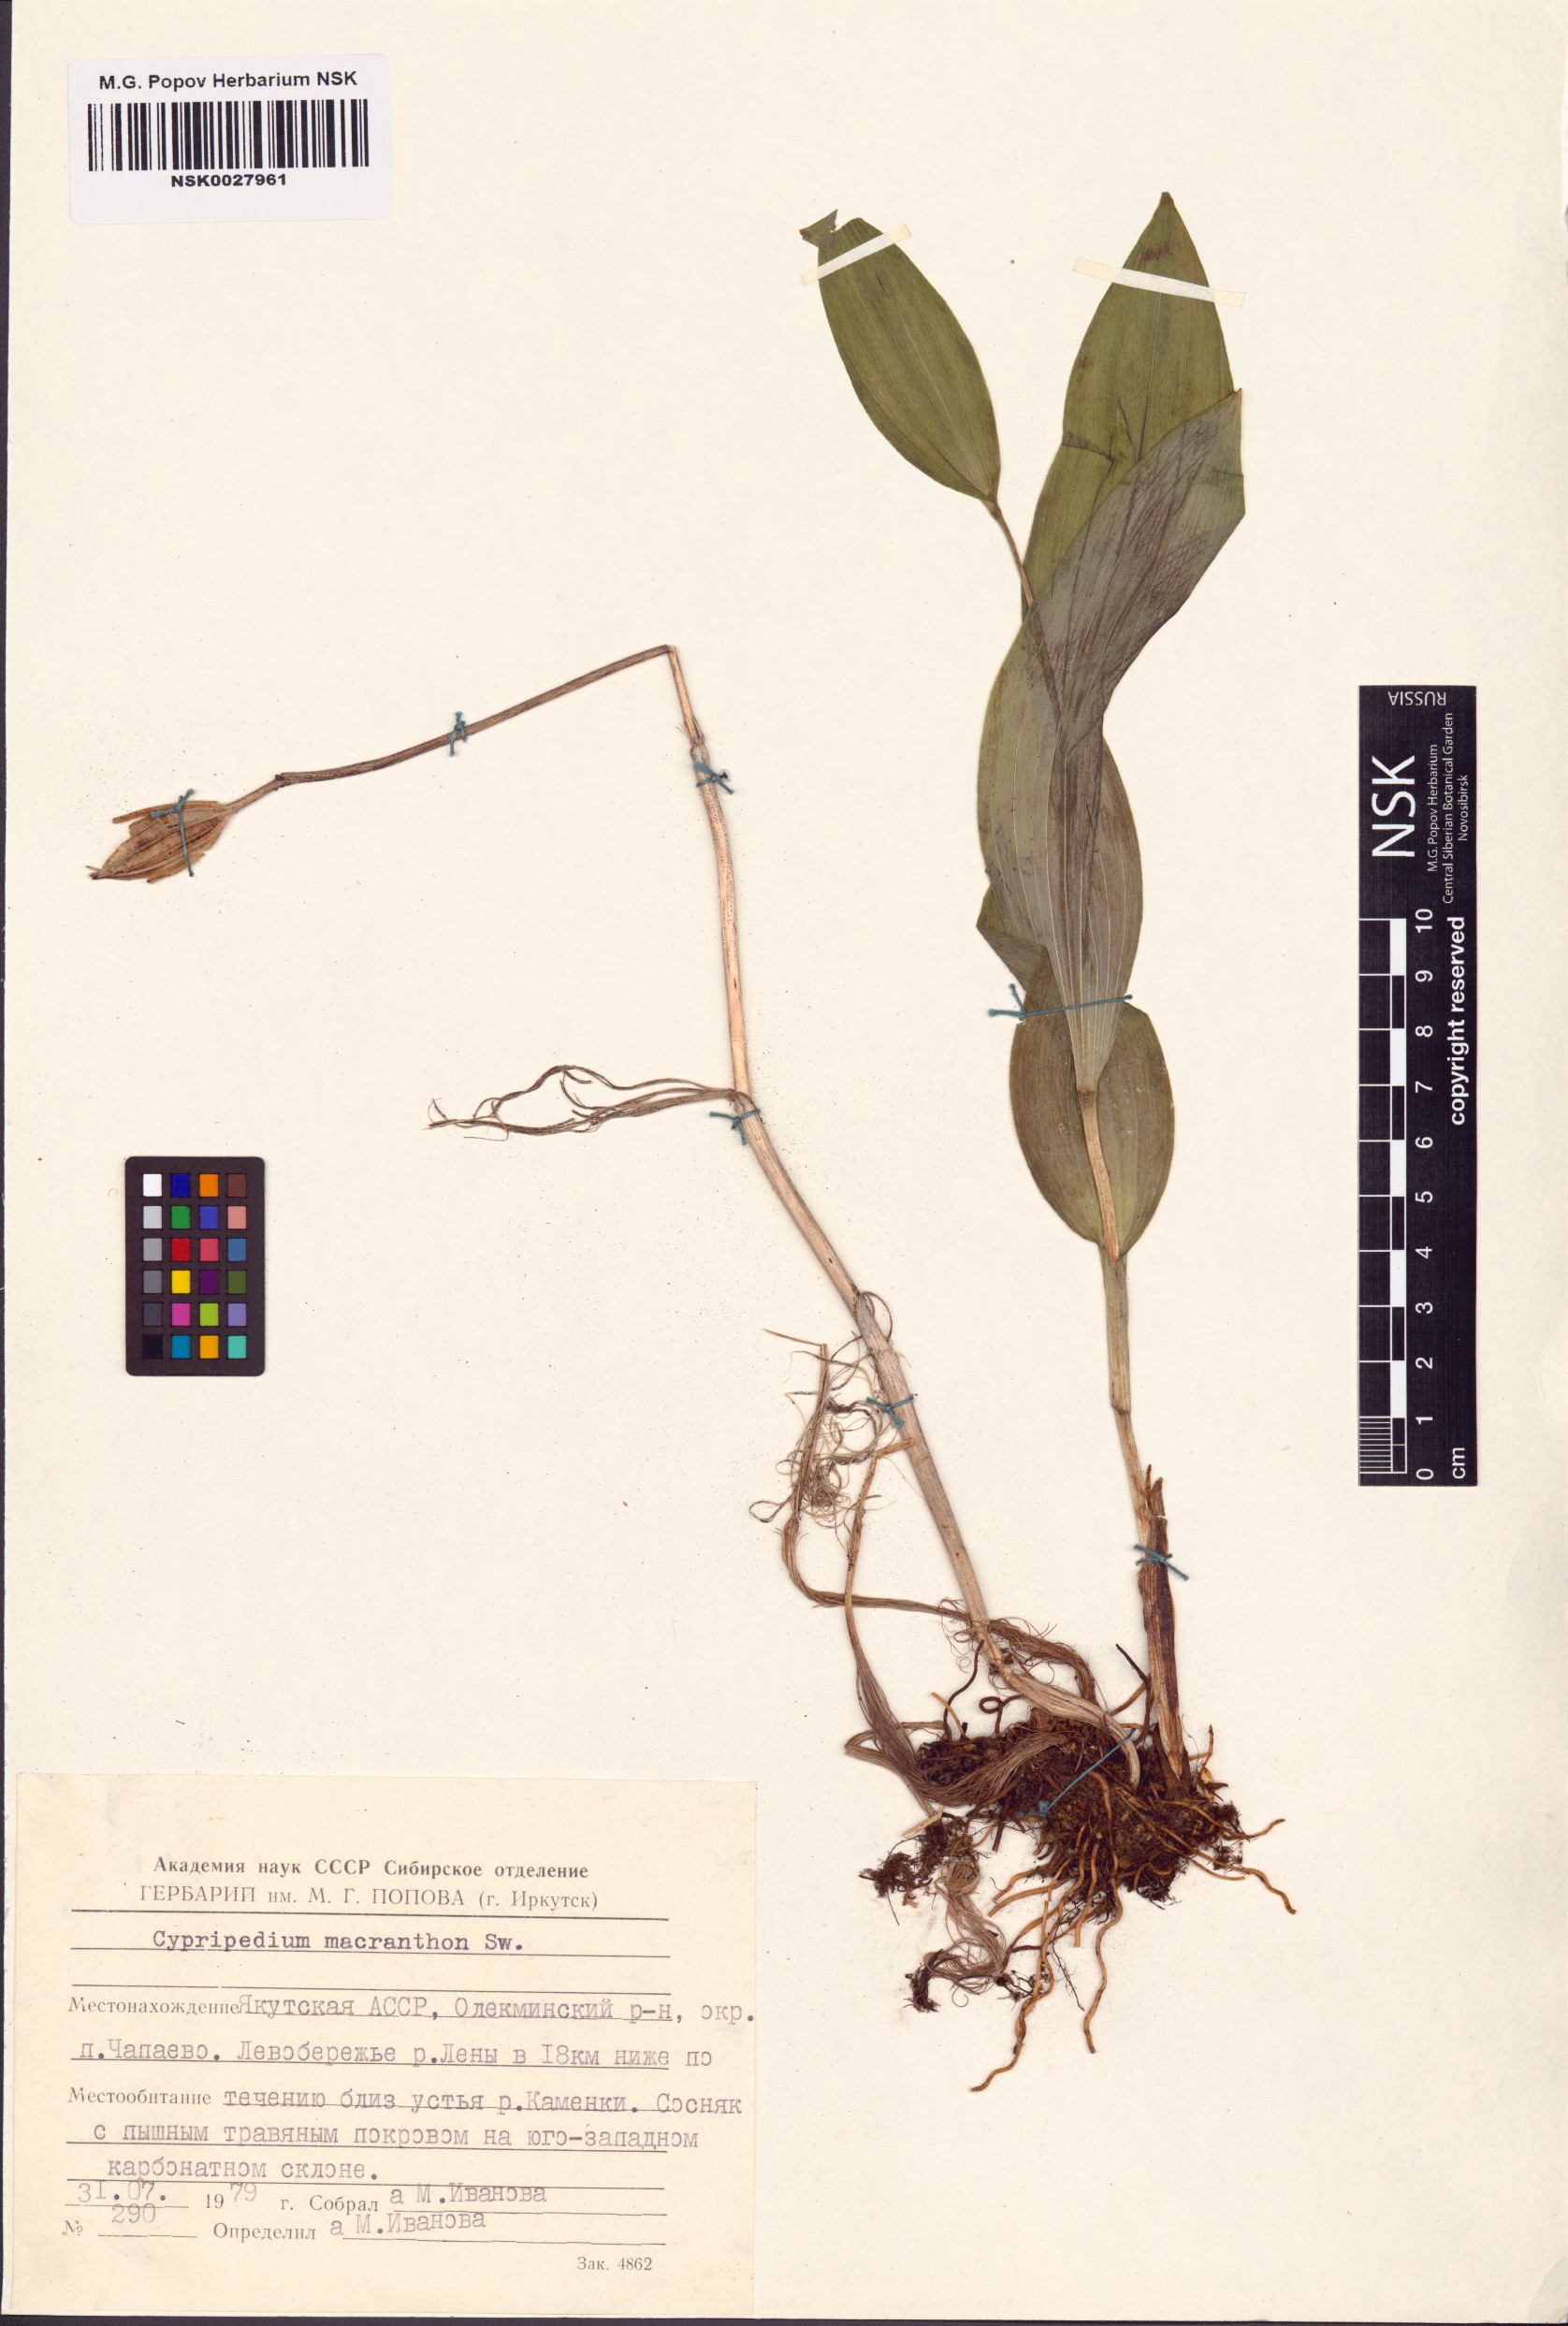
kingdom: Plantae
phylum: Tracheophyta
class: Liliopsida
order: Asparagales
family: Orchidaceae
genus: Cypripedium
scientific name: Cypripedium macranthos
